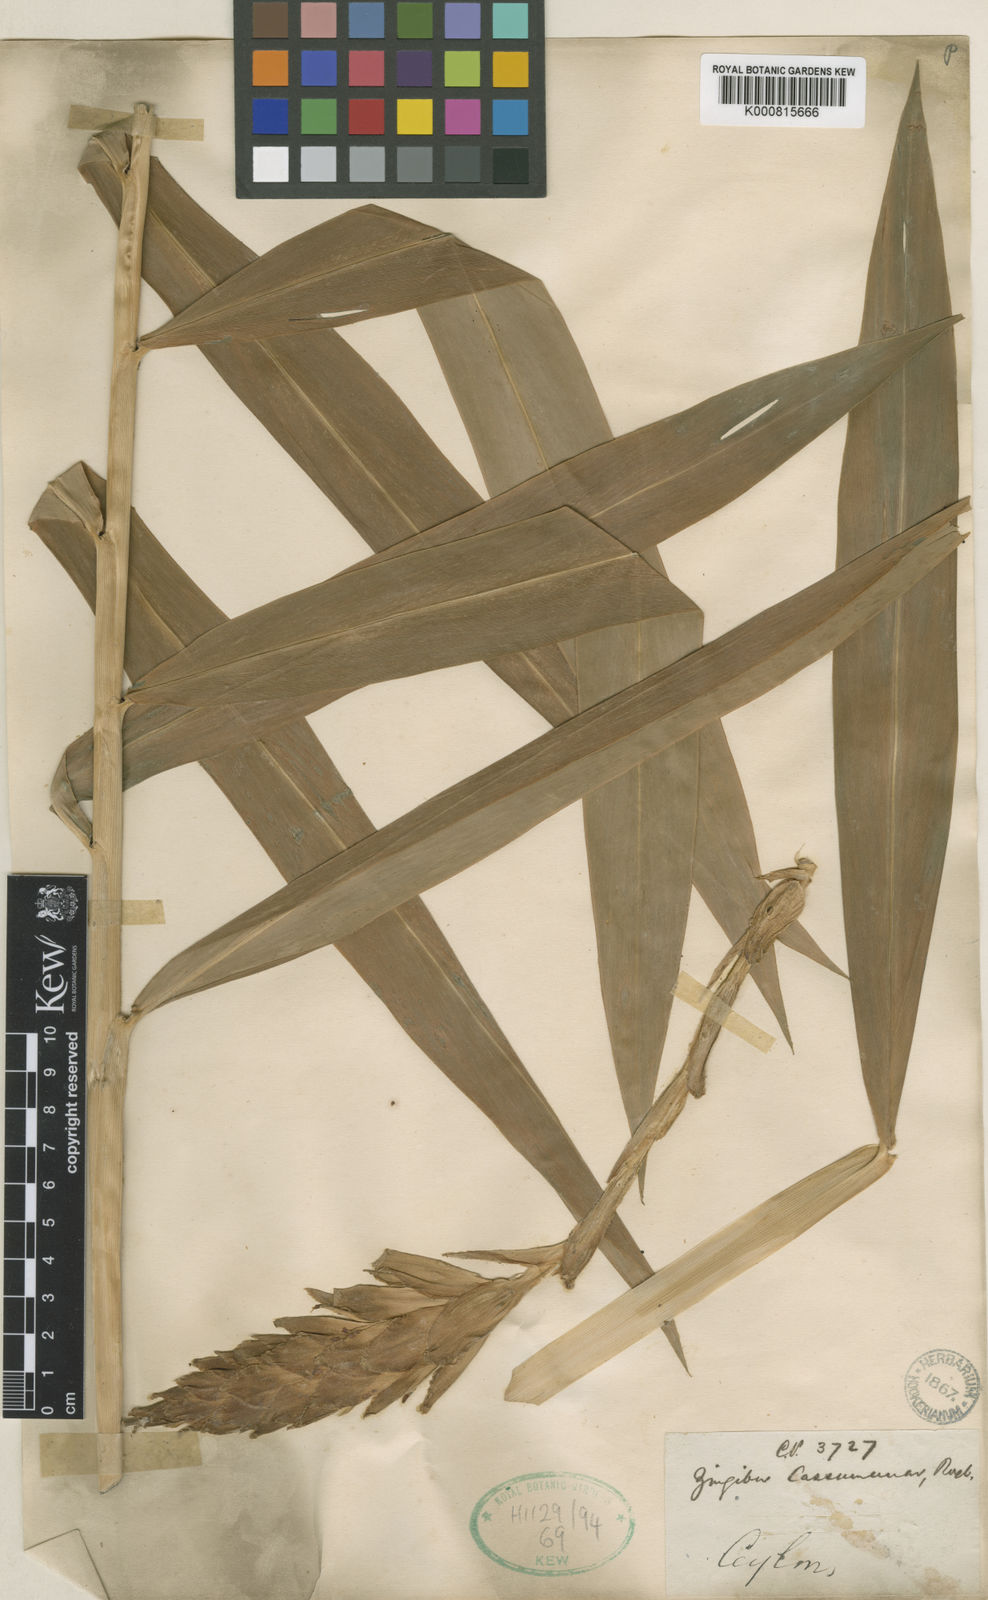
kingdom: Plantae
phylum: Tracheophyta
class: Liliopsida
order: Zingiberales
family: Zingiberaceae
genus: Zingiber
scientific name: Zingiber montanum
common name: Bengal ginger
